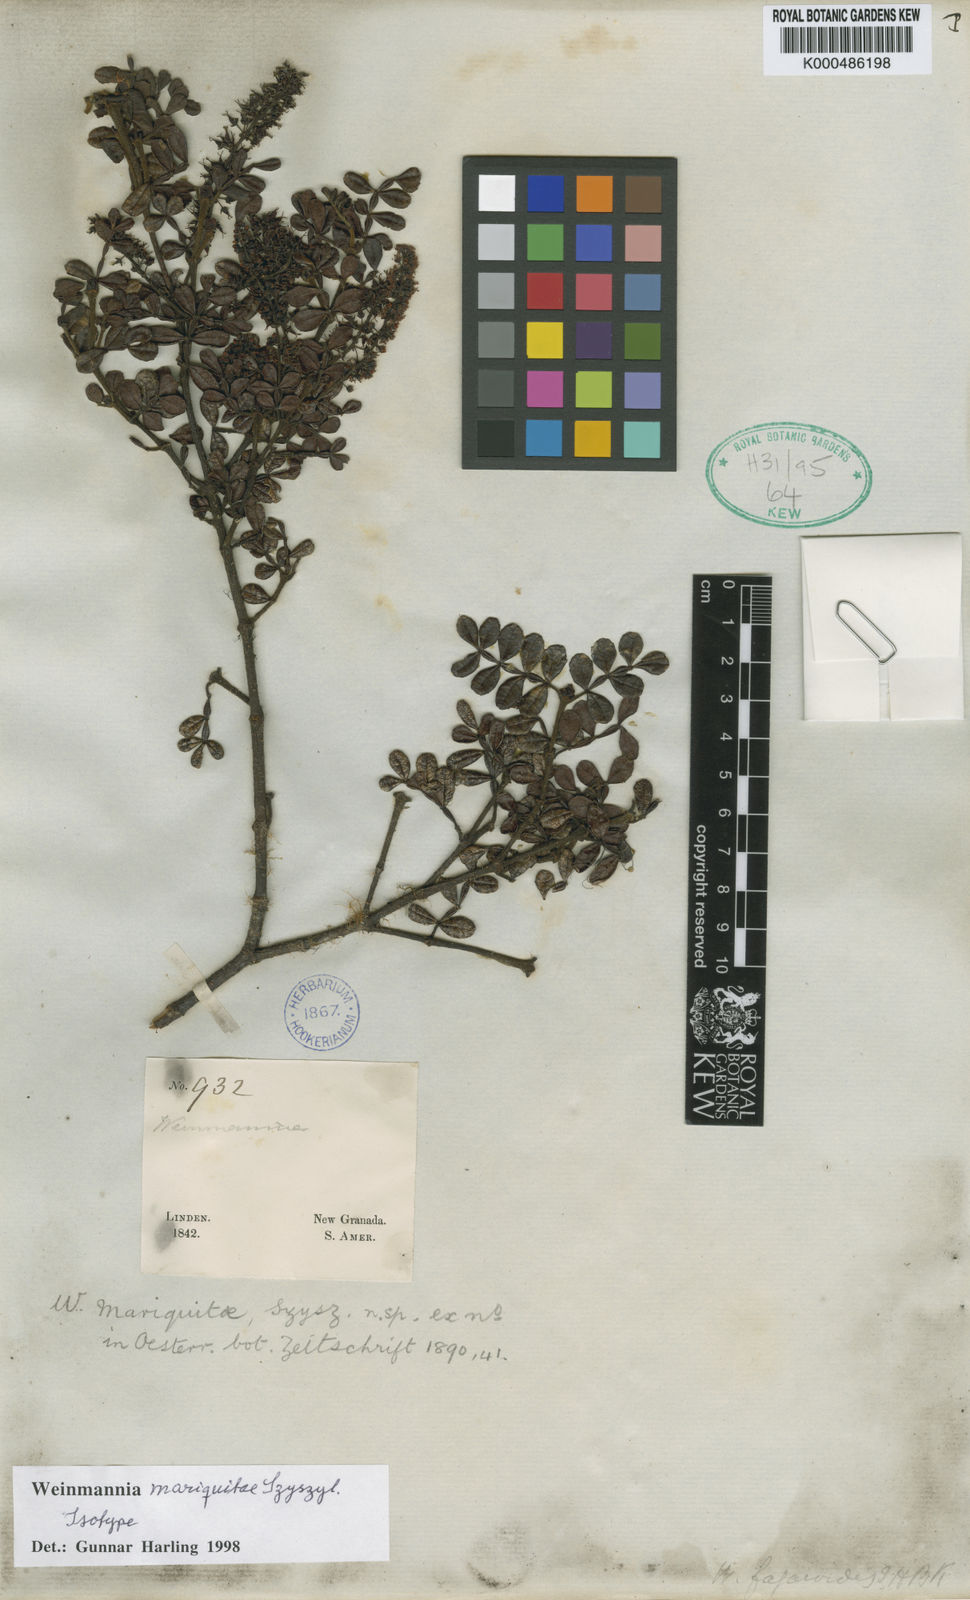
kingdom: Plantae
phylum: Tracheophyta
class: Magnoliopsida
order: Oxalidales
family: Cunoniaceae
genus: Weinmannia
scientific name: Weinmannia mariquitae
